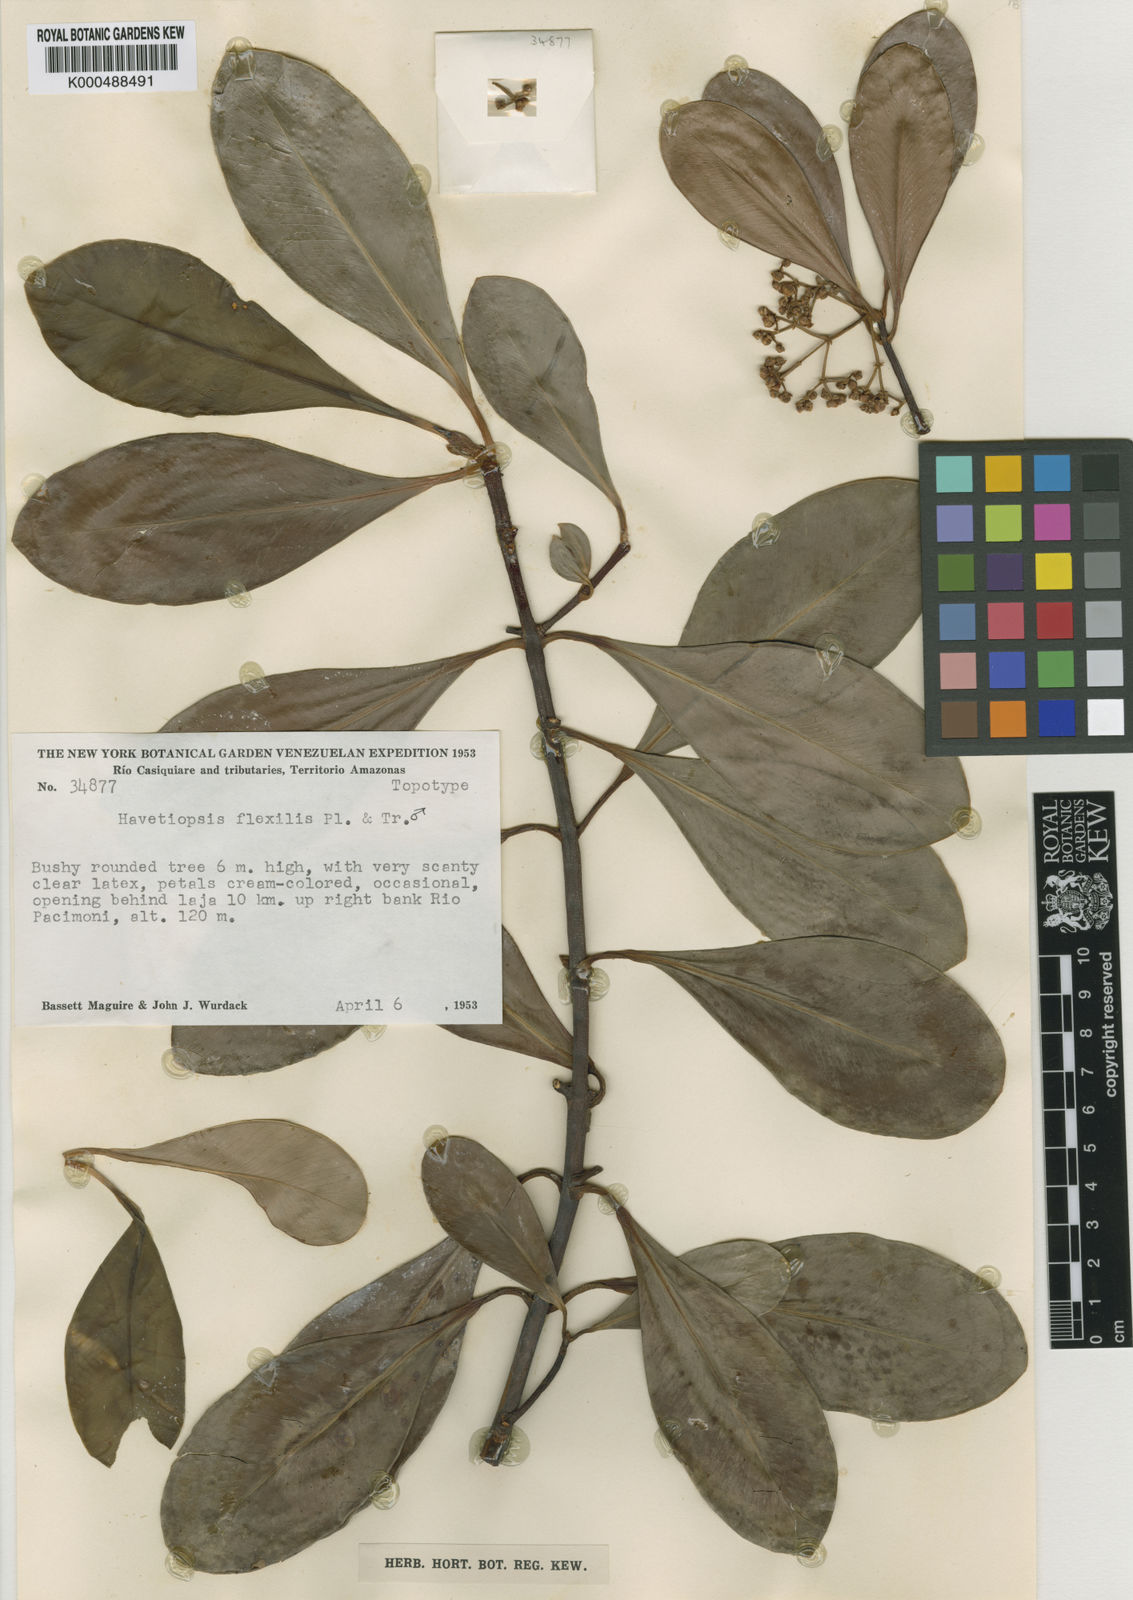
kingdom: Plantae
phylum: Tracheophyta
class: Magnoliopsida
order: Malpighiales
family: Clusiaceae
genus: Clusia
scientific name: Clusia flavida
